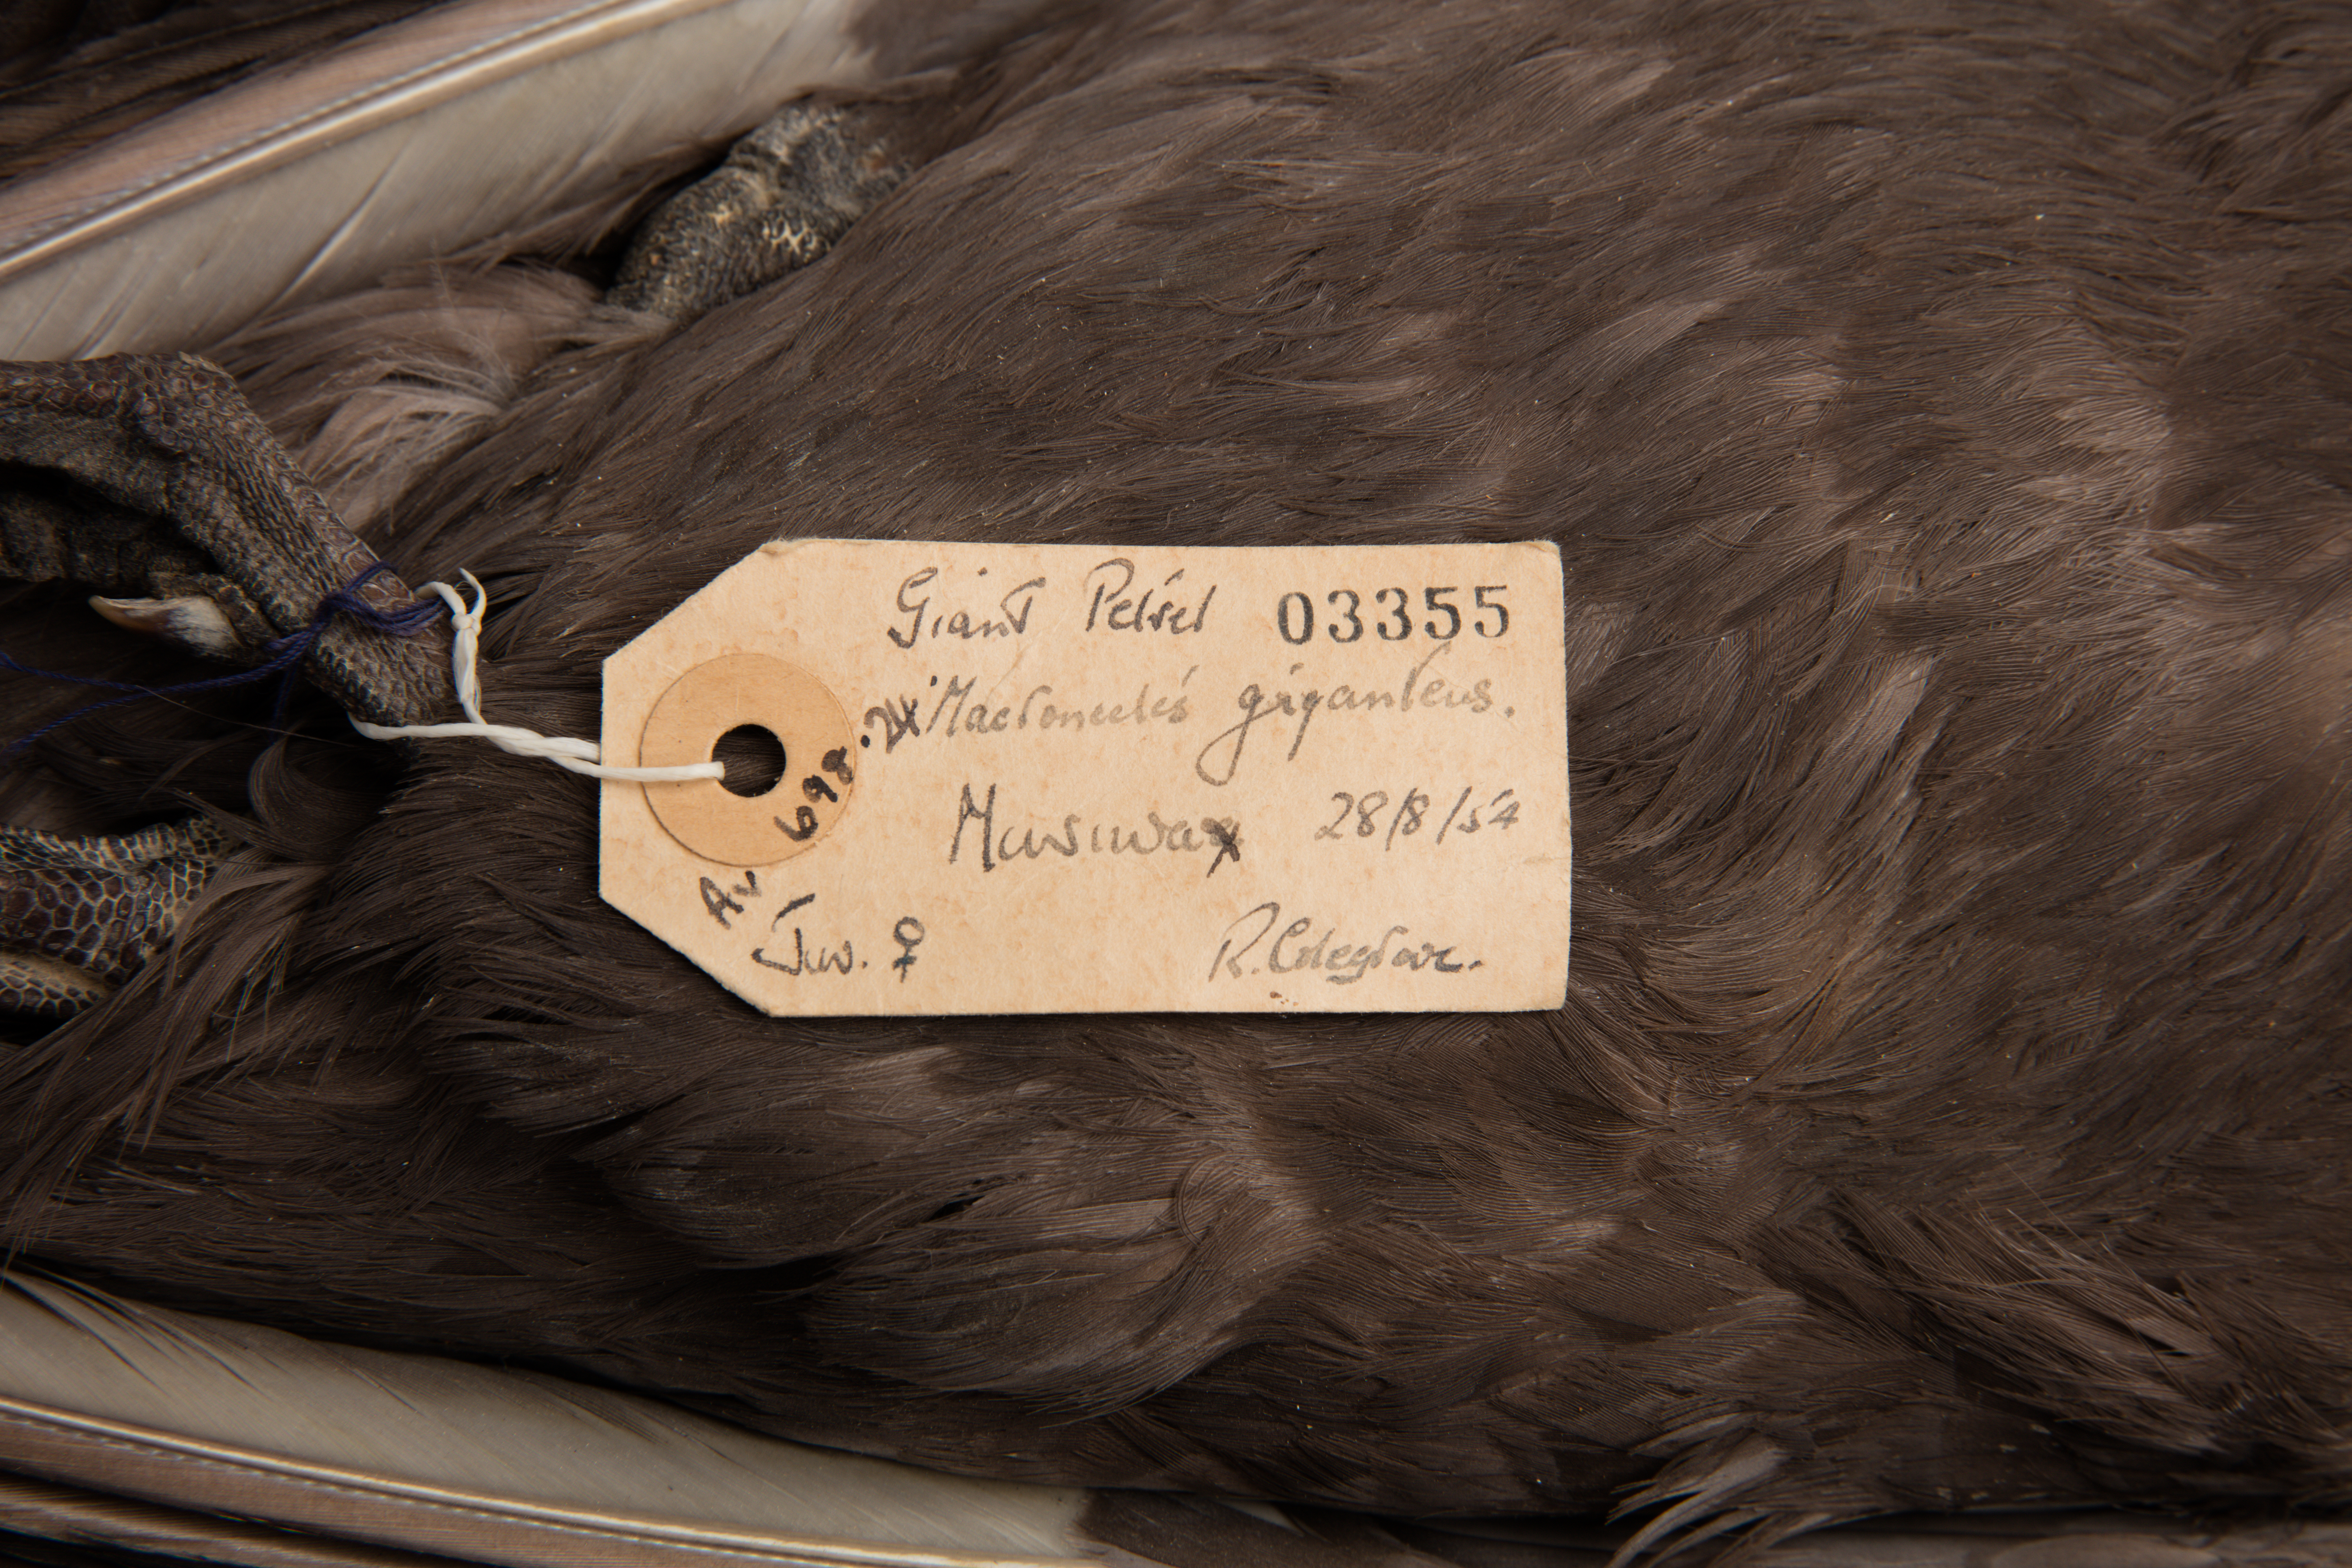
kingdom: Animalia
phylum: Chordata
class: Aves
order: Procellariiformes
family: Procellariidae
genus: Macronectes
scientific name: Macronectes giganteus
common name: Southern giant petrel
